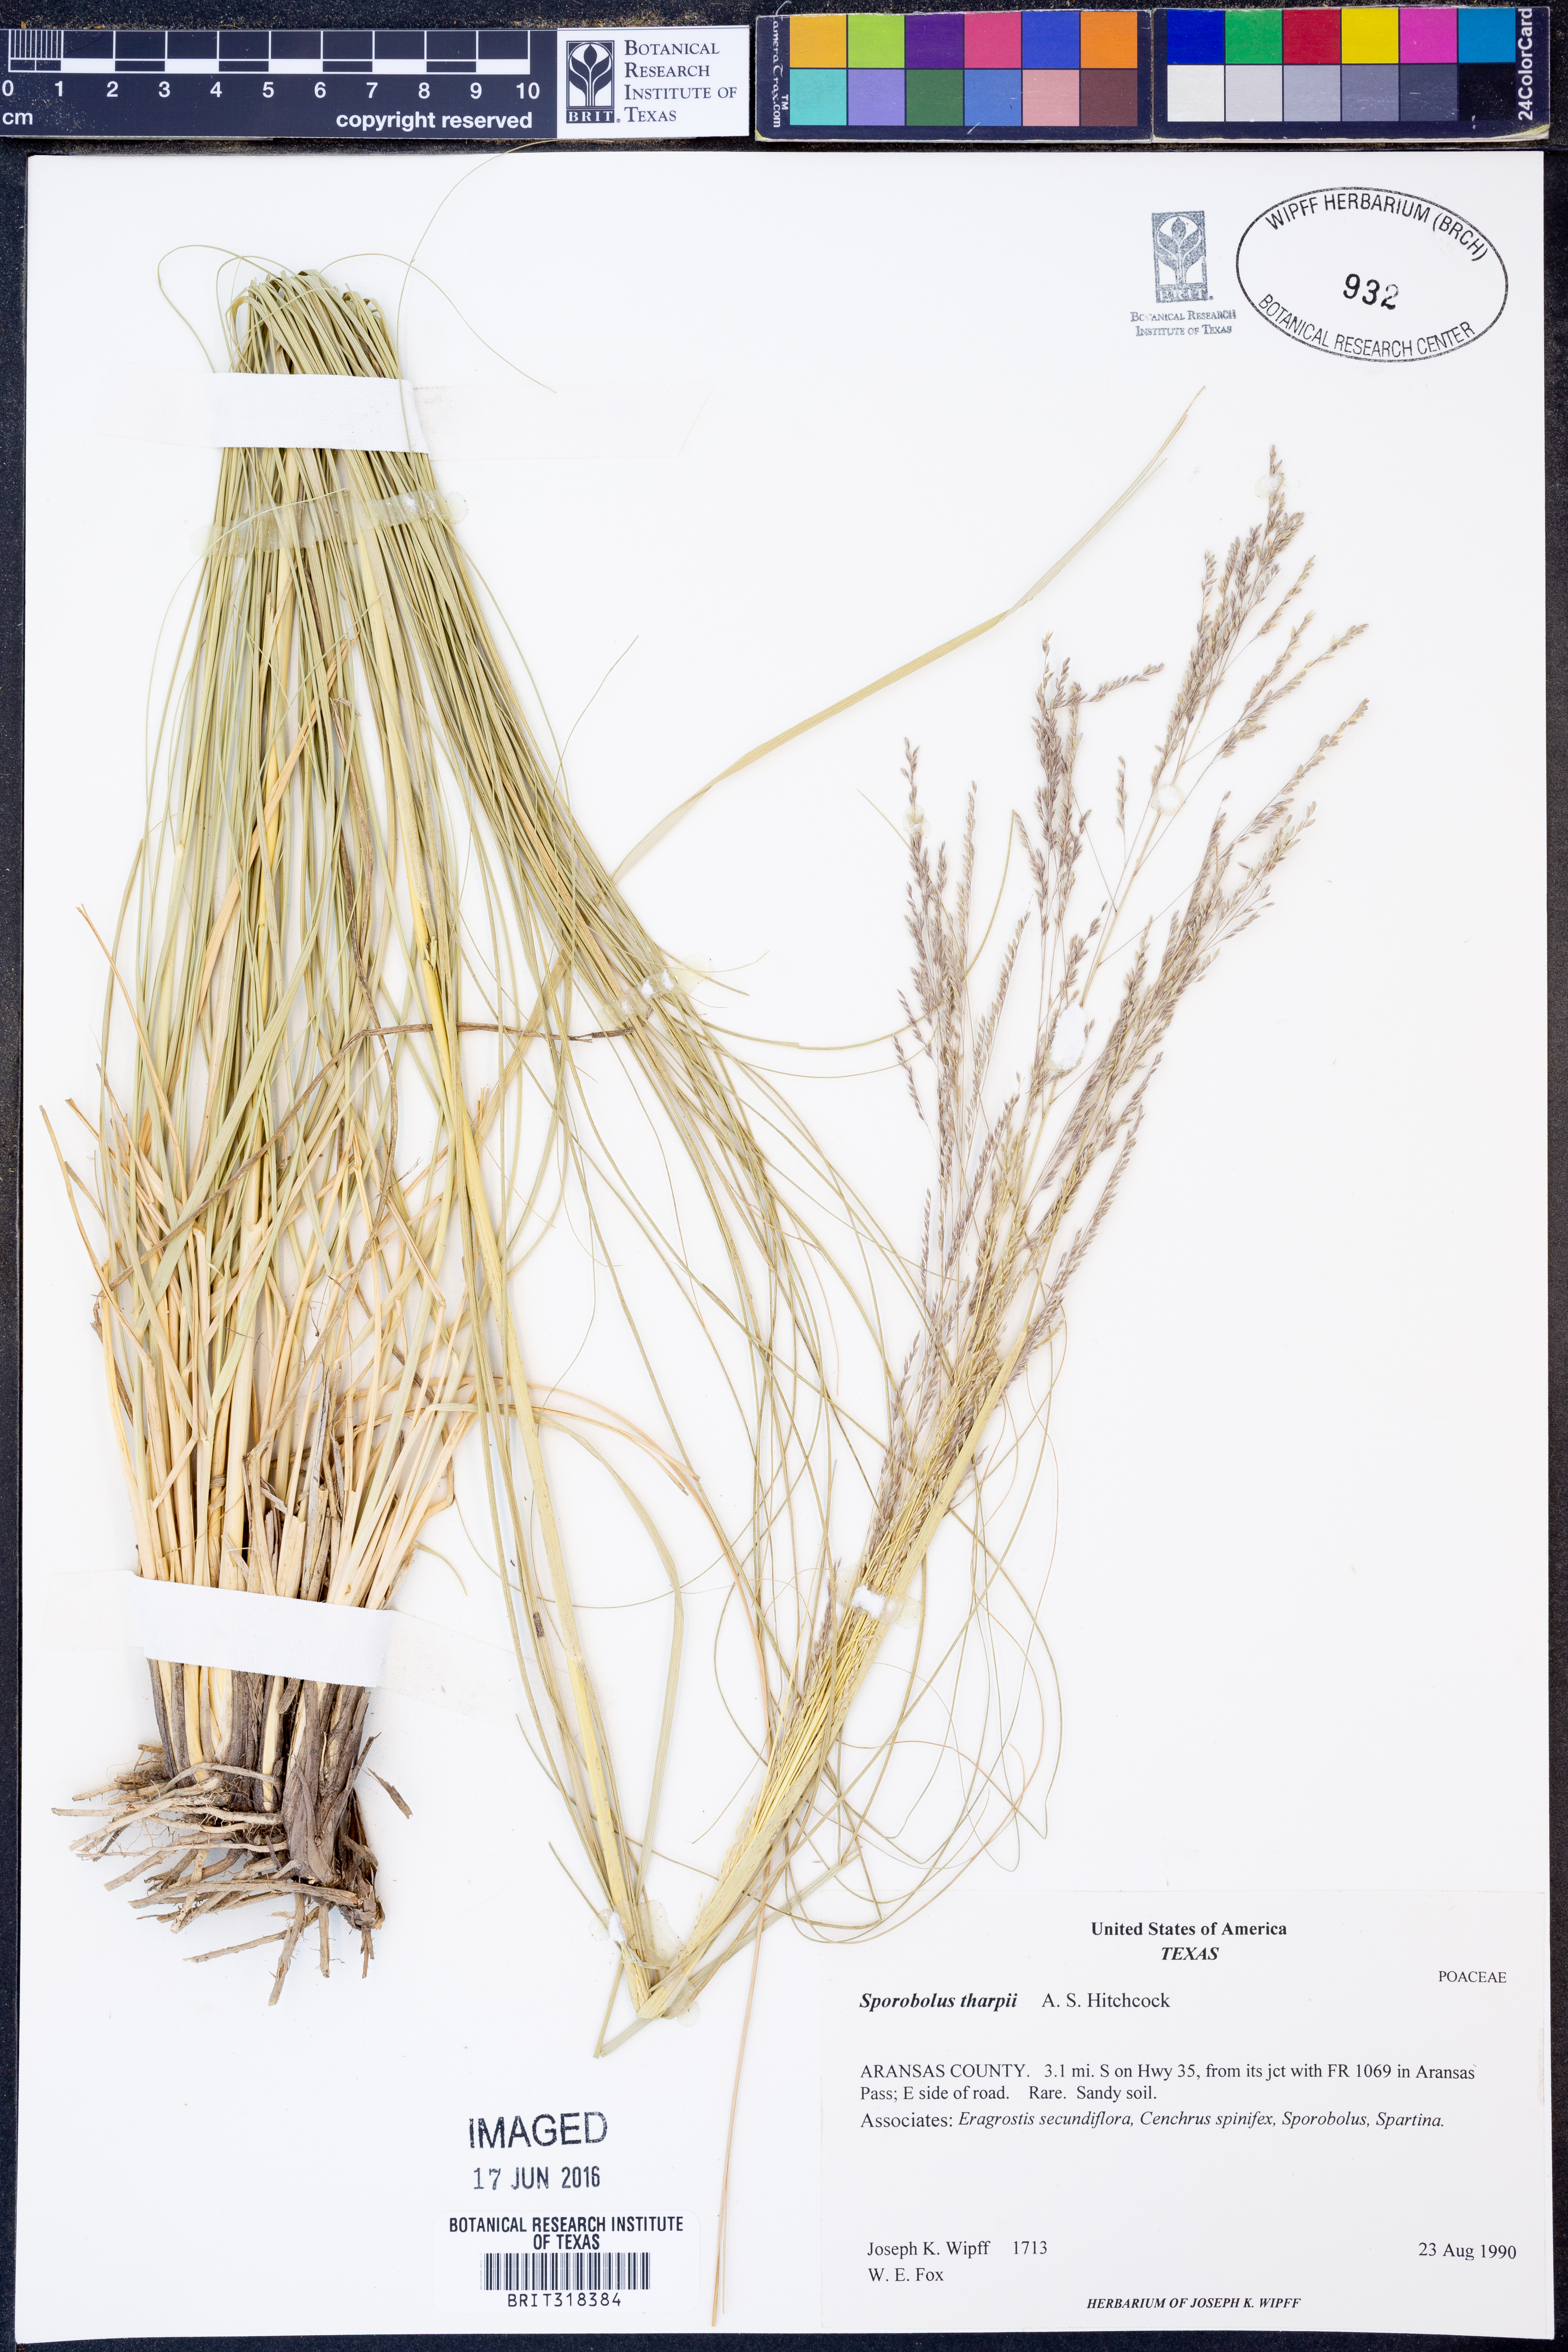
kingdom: Plantae
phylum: Tracheophyta
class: Liliopsida
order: Poales
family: Poaceae
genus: Sporobolus
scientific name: Sporobolus airoides
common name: Alkali sacaton
